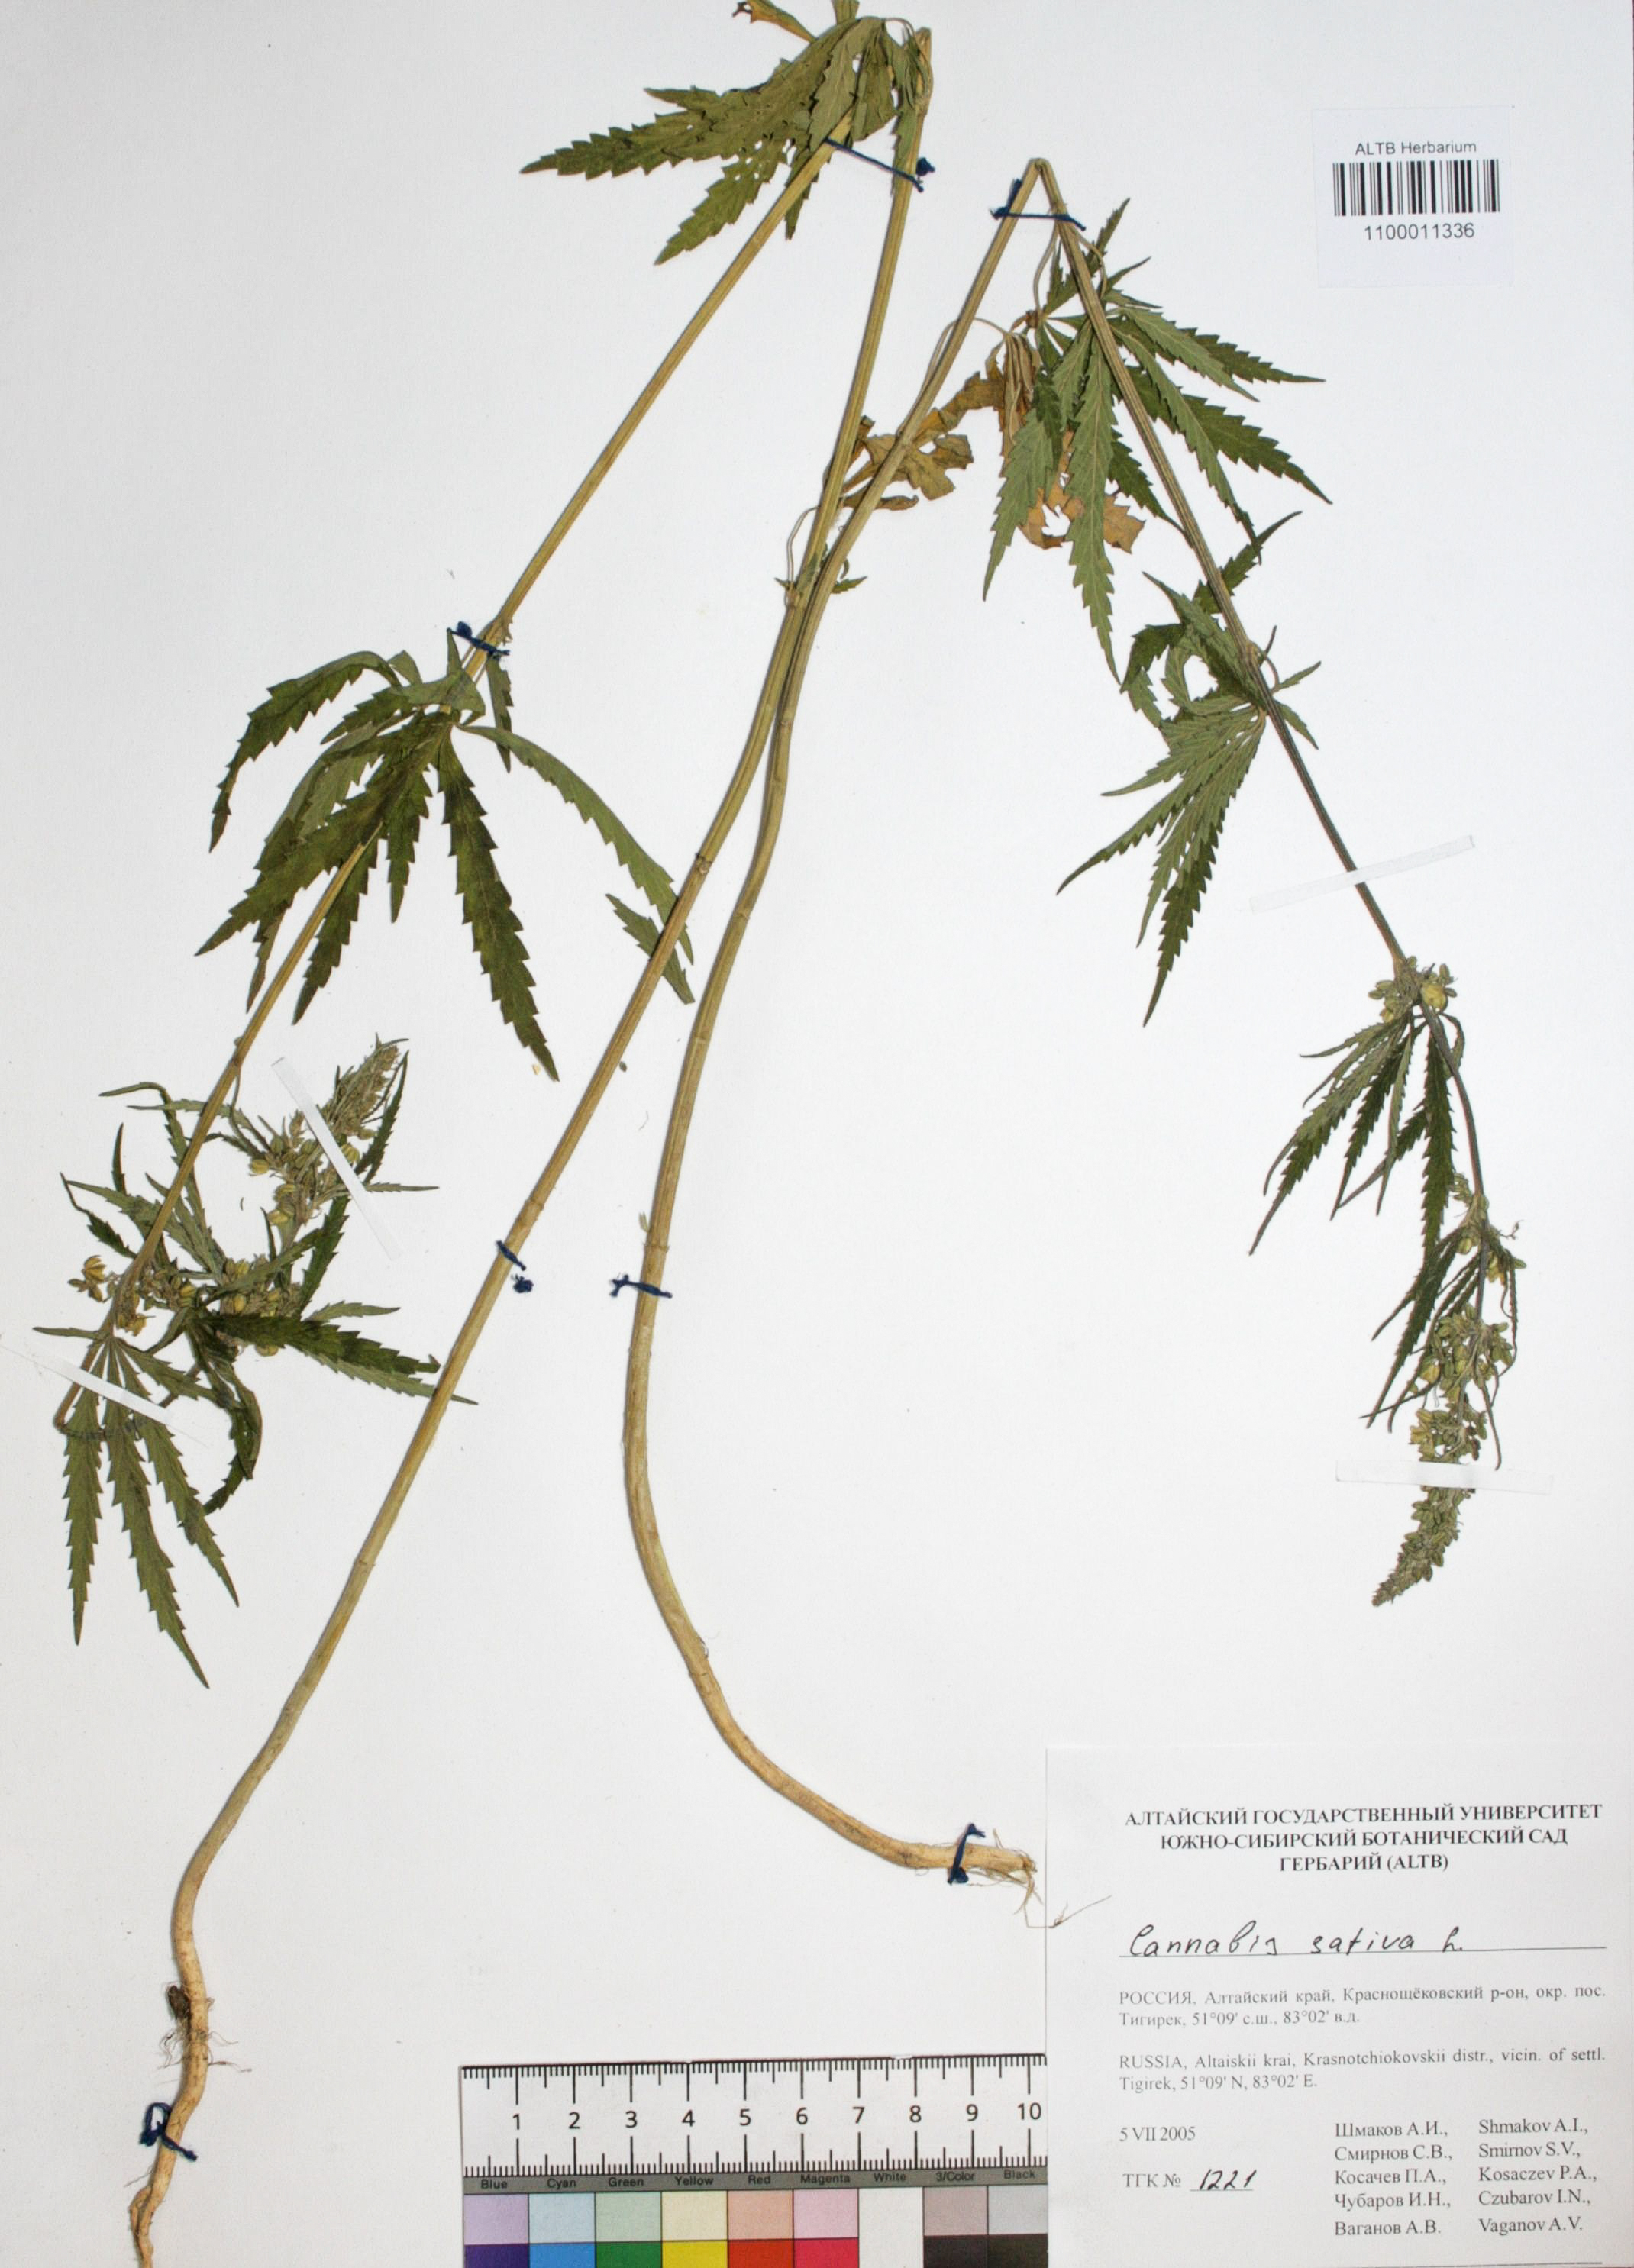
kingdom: Plantae
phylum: Tracheophyta
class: Magnoliopsida
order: Rosales
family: Cannabaceae
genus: Cannabis
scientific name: Cannabis sativa
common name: Hemp
